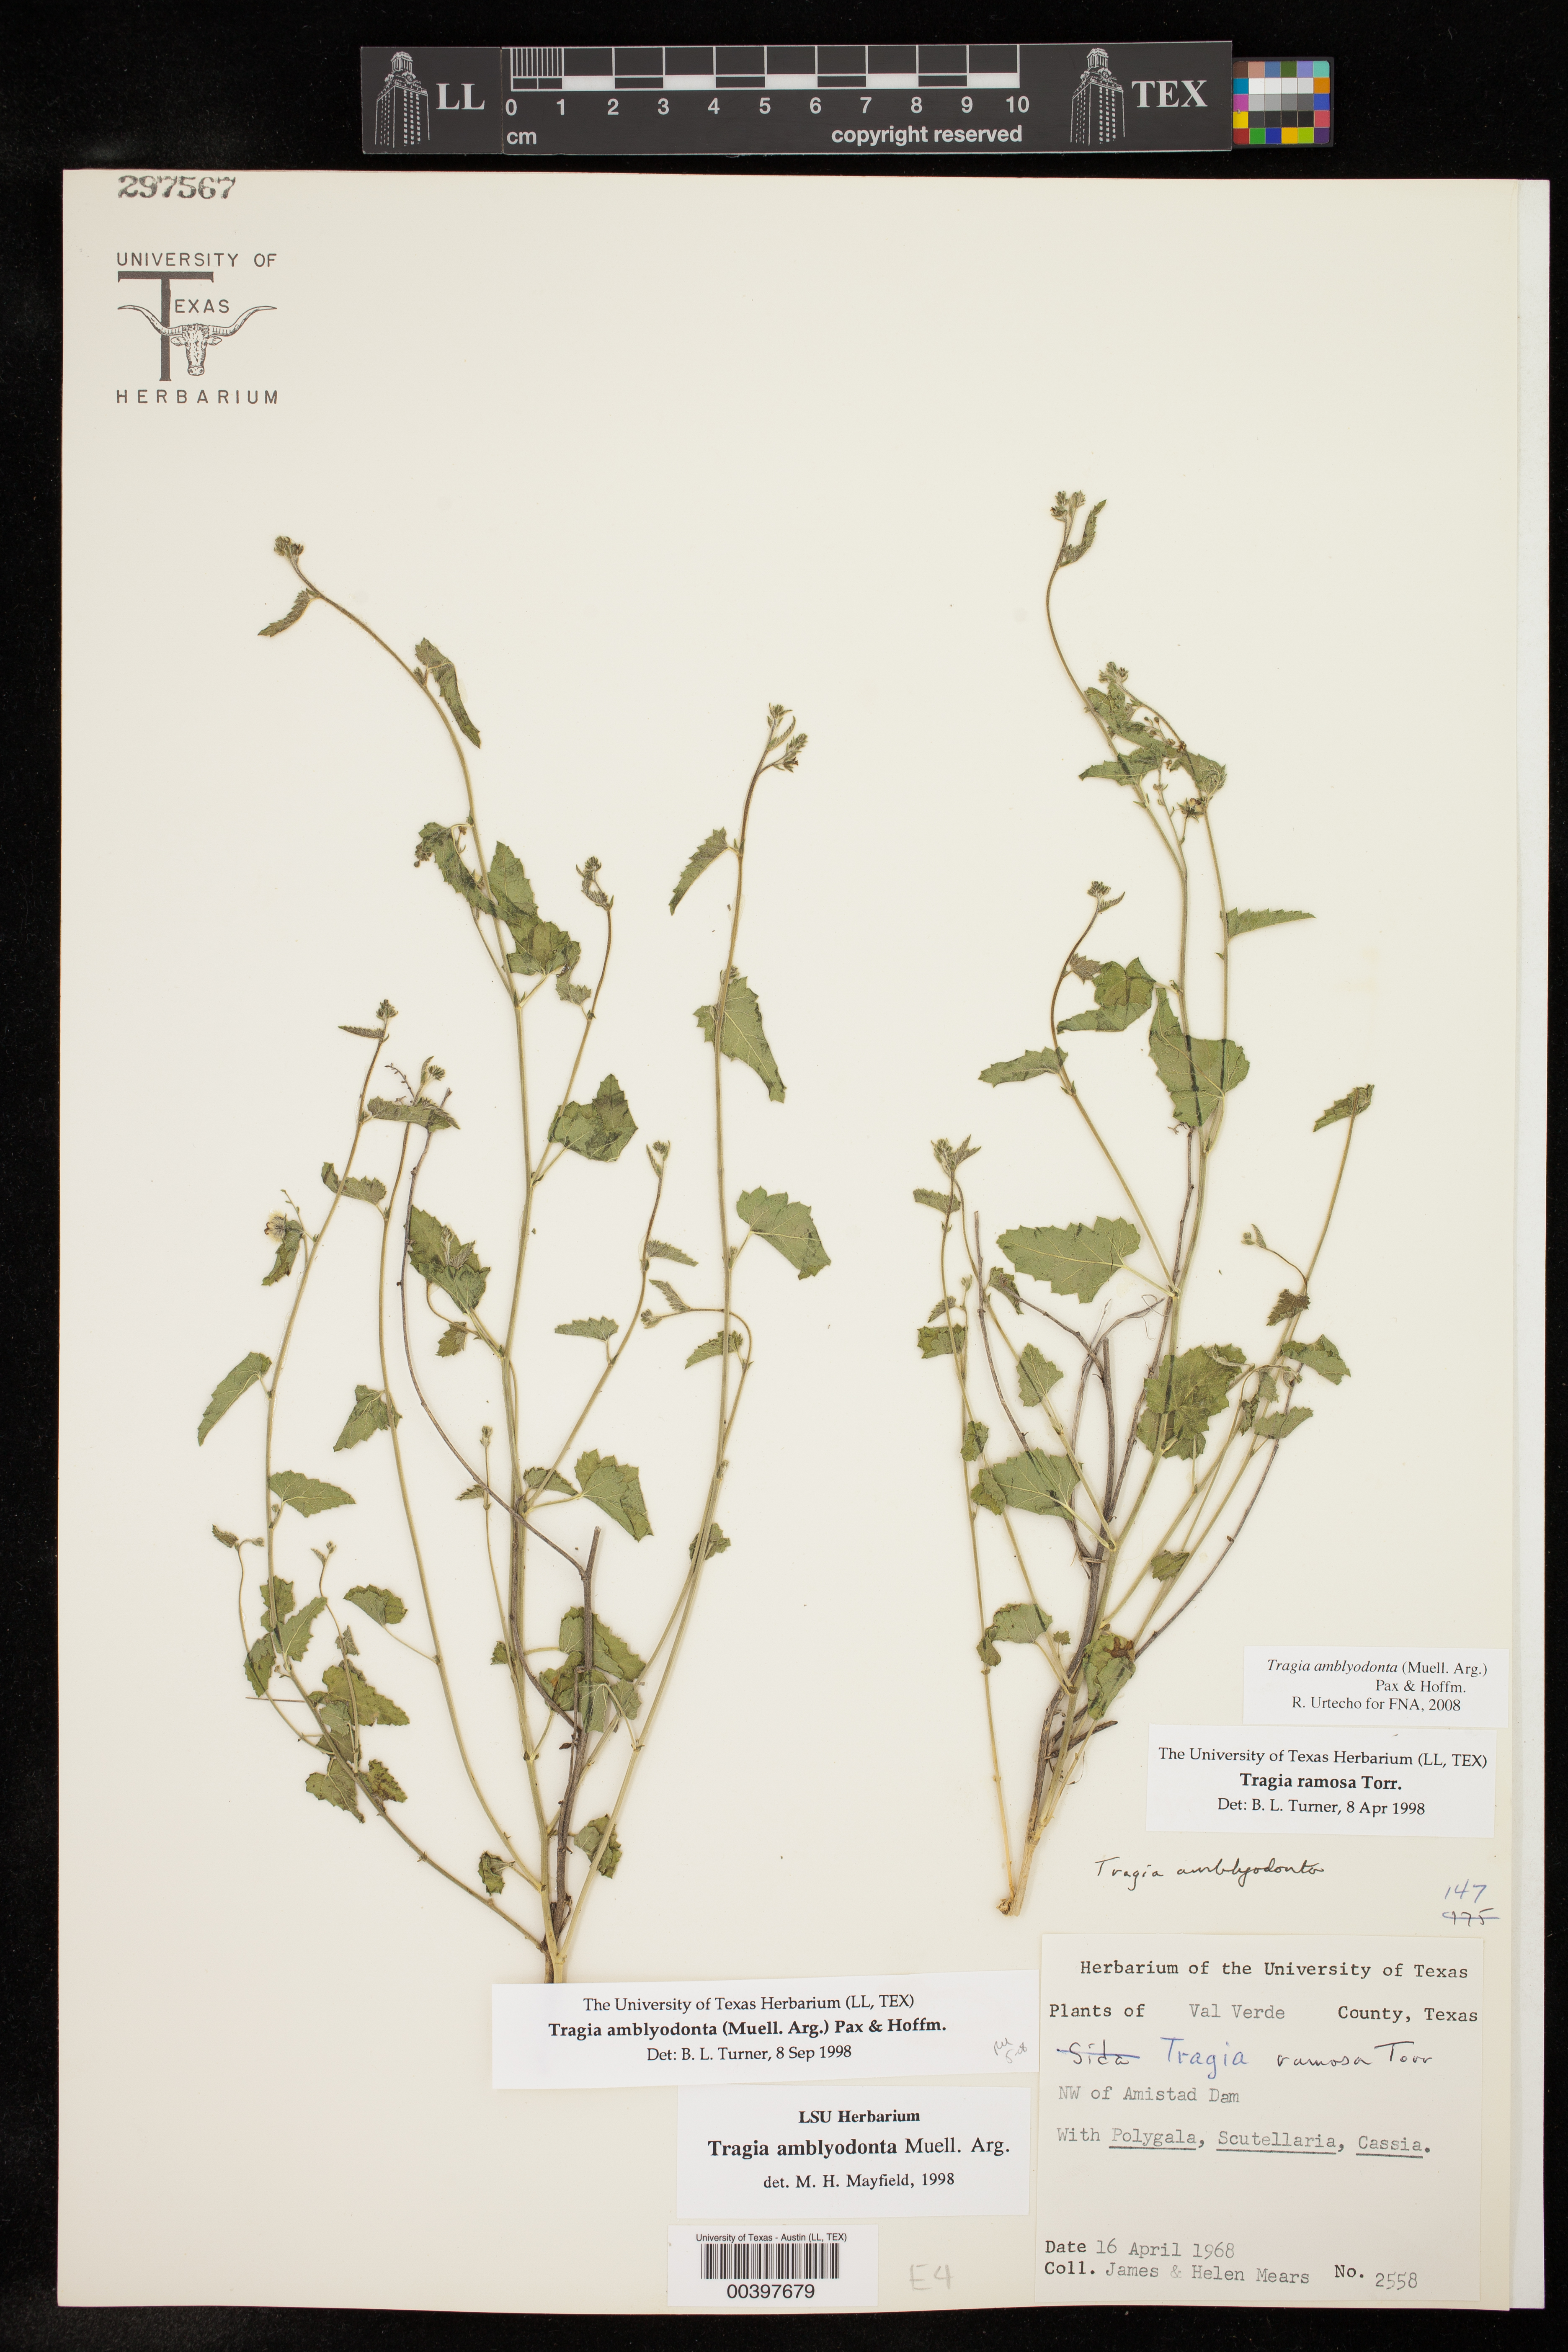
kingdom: Plantae
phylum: Tracheophyta
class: Magnoliopsida
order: Malpighiales
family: Euphorbiaceae
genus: Tragia
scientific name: Tragia amblyodonta
